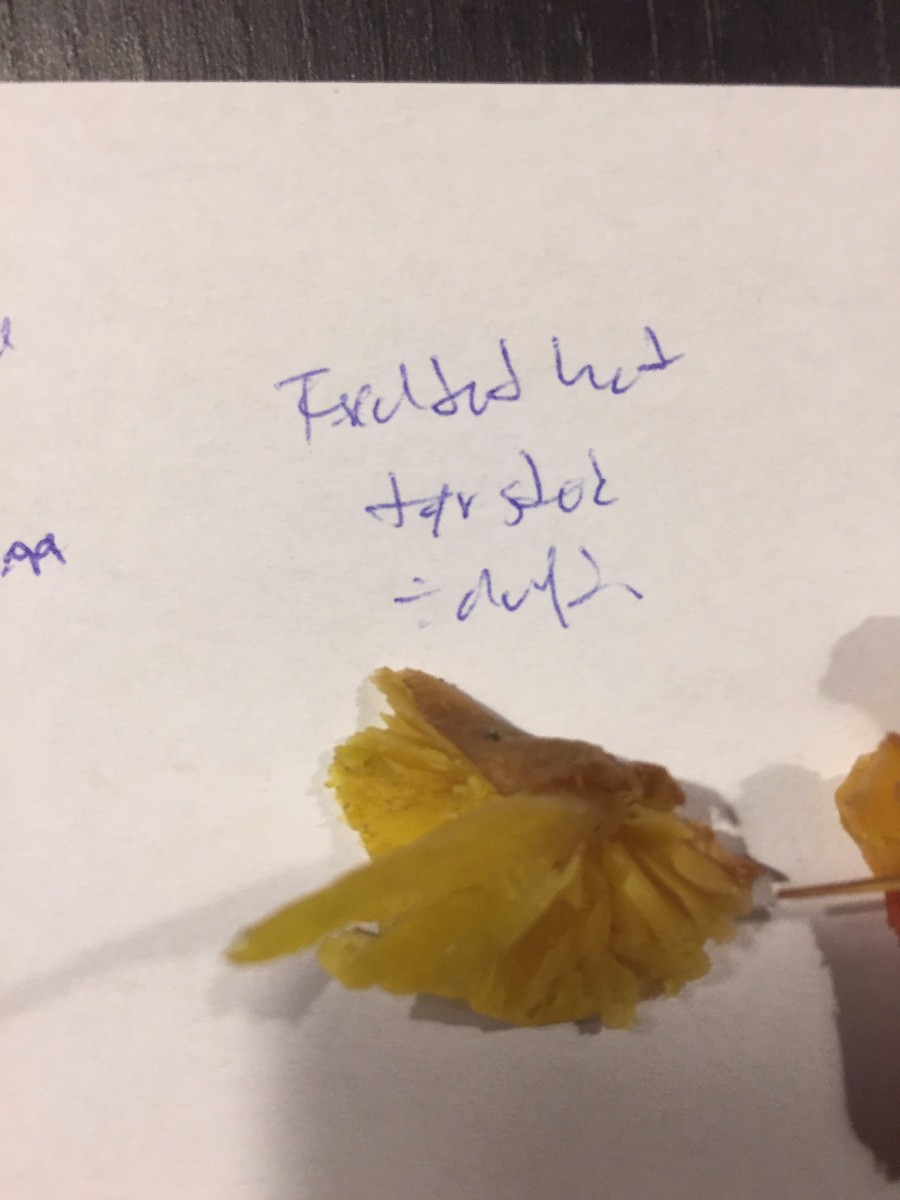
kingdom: Fungi
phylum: Basidiomycota
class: Agaricomycetes
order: Agaricales
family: Hygrophoraceae
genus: Hygrocybe
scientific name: Hygrocybe
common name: vokshat
